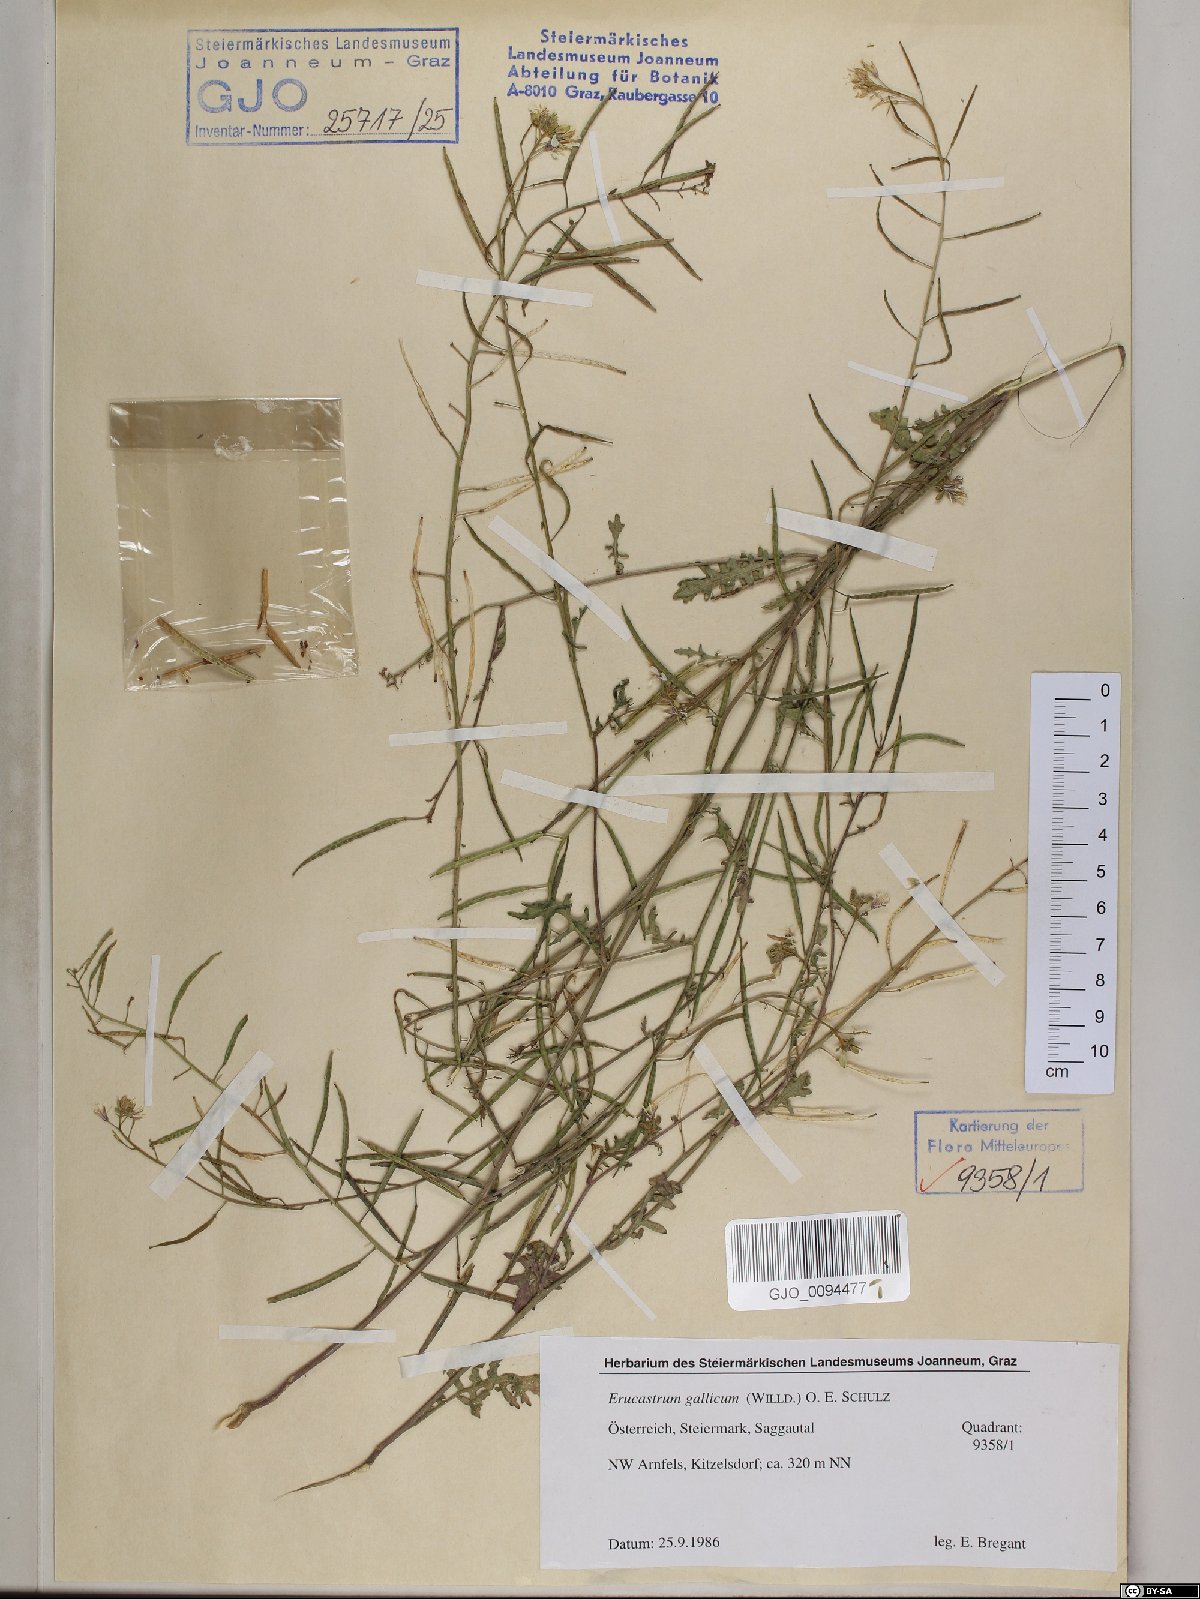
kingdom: Plantae
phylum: Tracheophyta
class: Magnoliopsida
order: Brassicales
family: Brassicaceae
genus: Erucastrum
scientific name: Erucastrum gallicum
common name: Hairy rocket
